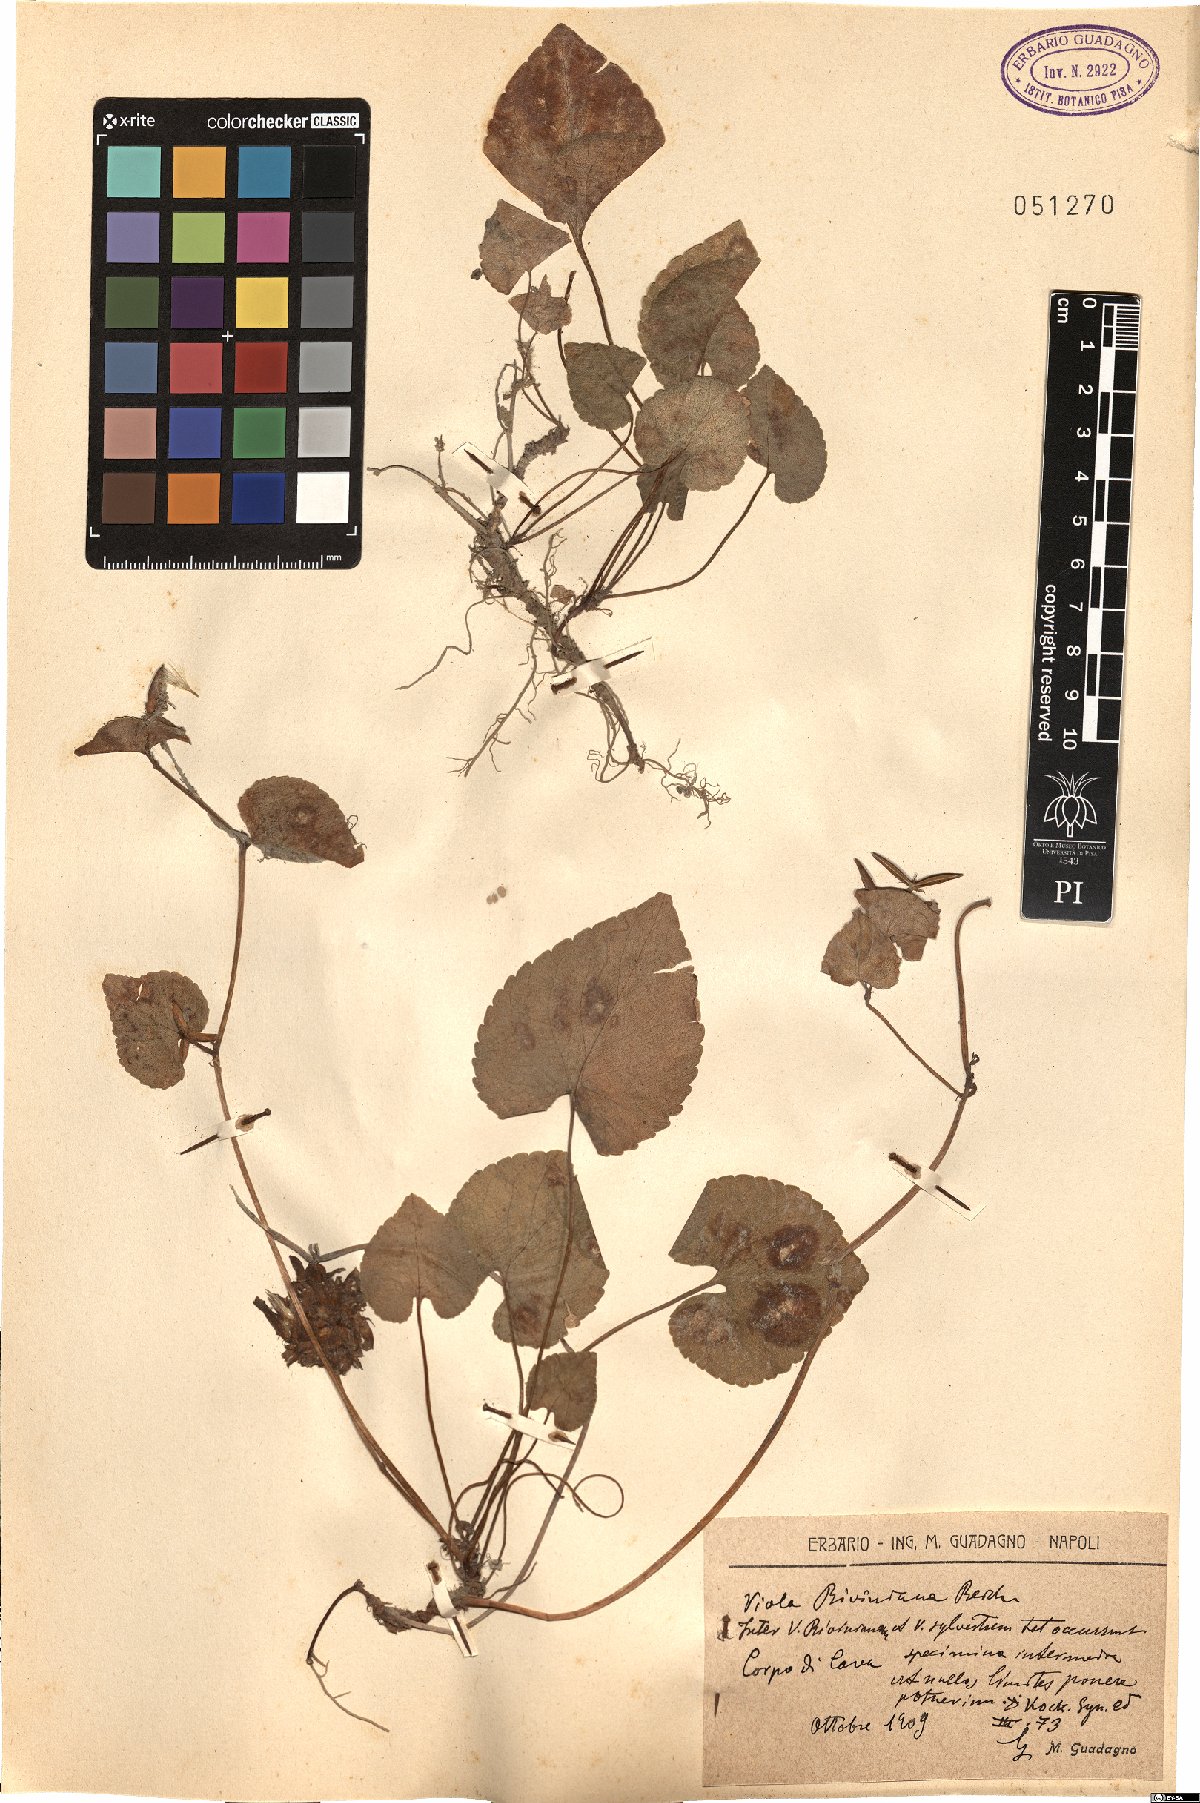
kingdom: Plantae
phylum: Tracheophyta
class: Magnoliopsida
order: Malpighiales
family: Violaceae
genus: Viola
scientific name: Viola riviniana
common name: Common dog-violet
